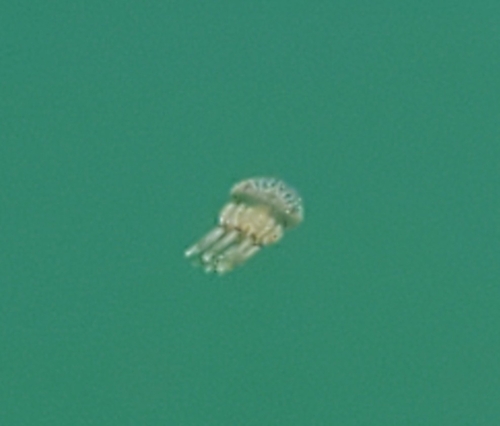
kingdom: Animalia
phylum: Cnidaria
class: Scyphozoa
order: Rhizostomeae
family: Mastigiidae
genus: Mastigias
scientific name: Mastigias albipunctata
